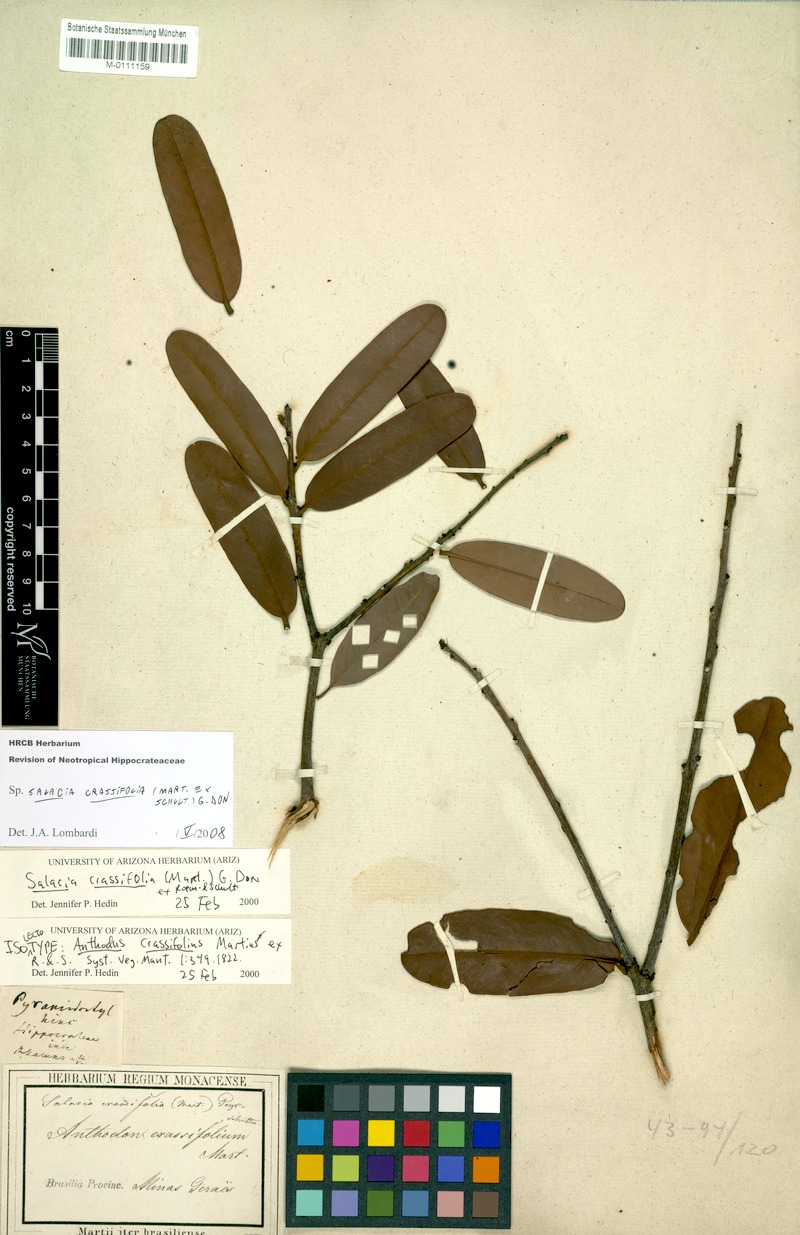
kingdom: Plantae
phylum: Tracheophyta
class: Magnoliopsida
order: Celastrales
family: Celastraceae
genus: Salacia
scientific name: Salacia crassifolia
